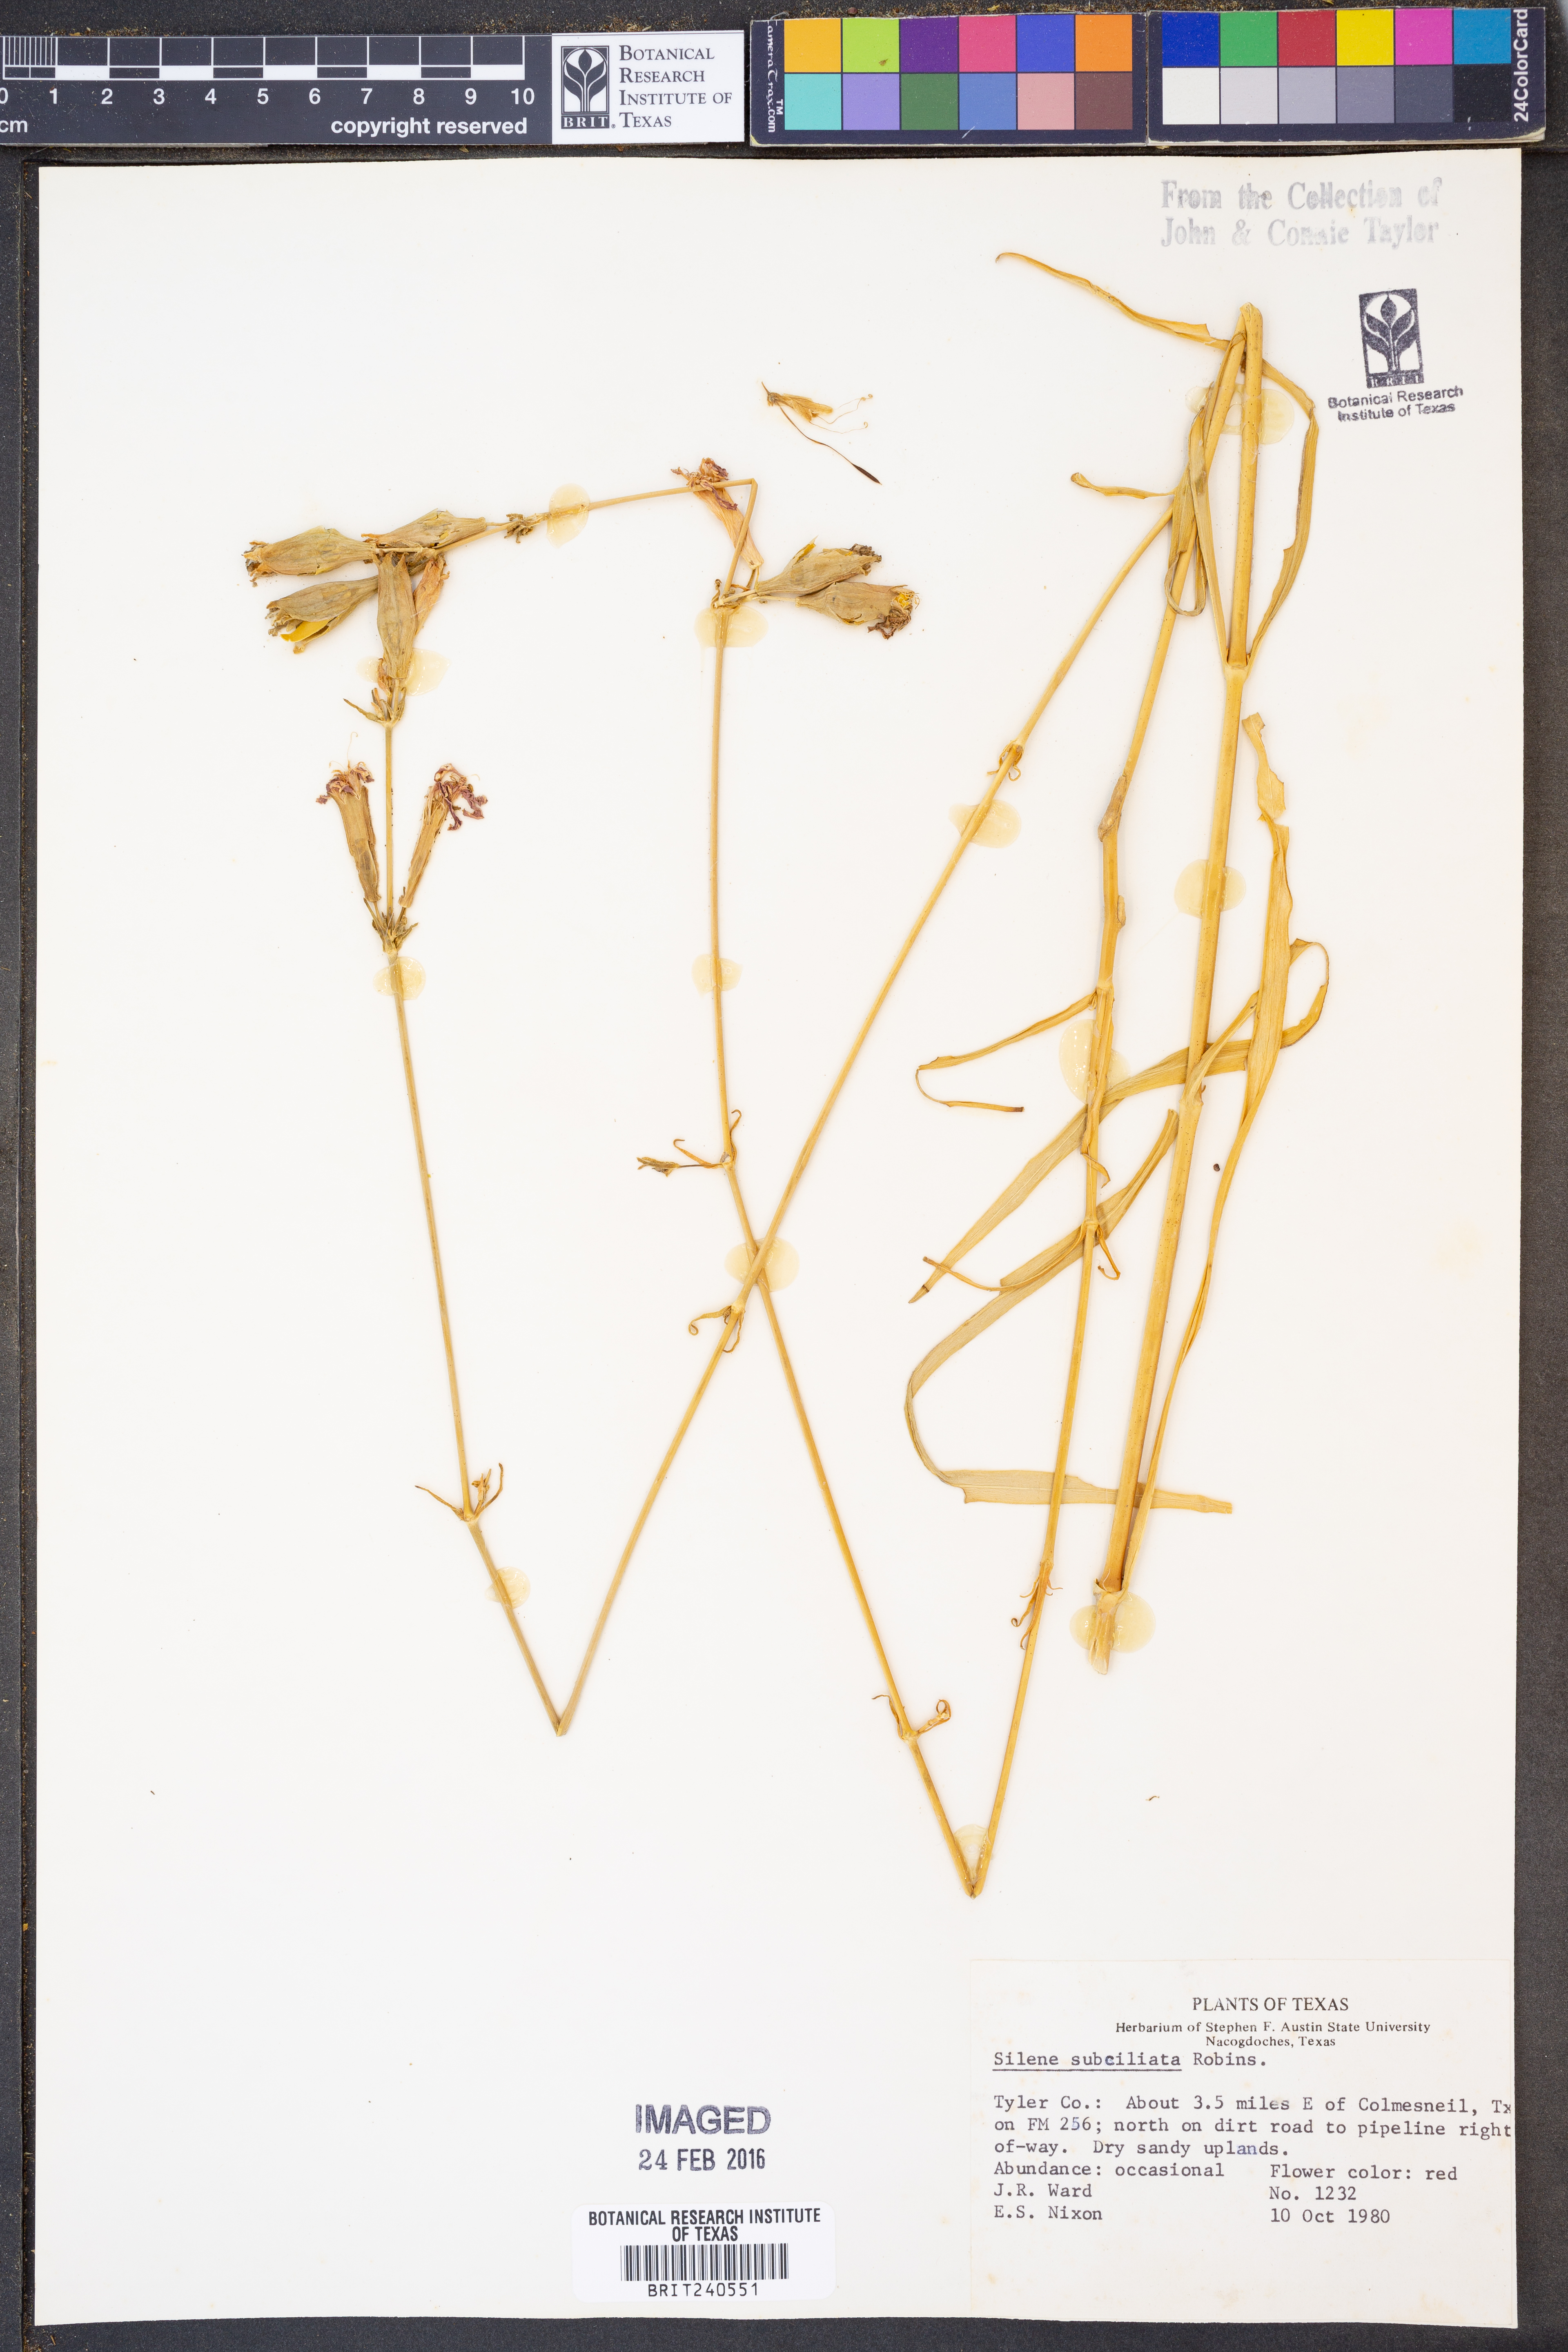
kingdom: Plantae
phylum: Tracheophyta
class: Magnoliopsida
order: Caryophyllales
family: Caryophyllaceae
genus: Silene
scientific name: Silene subciliata
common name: Prairie fire-pink
